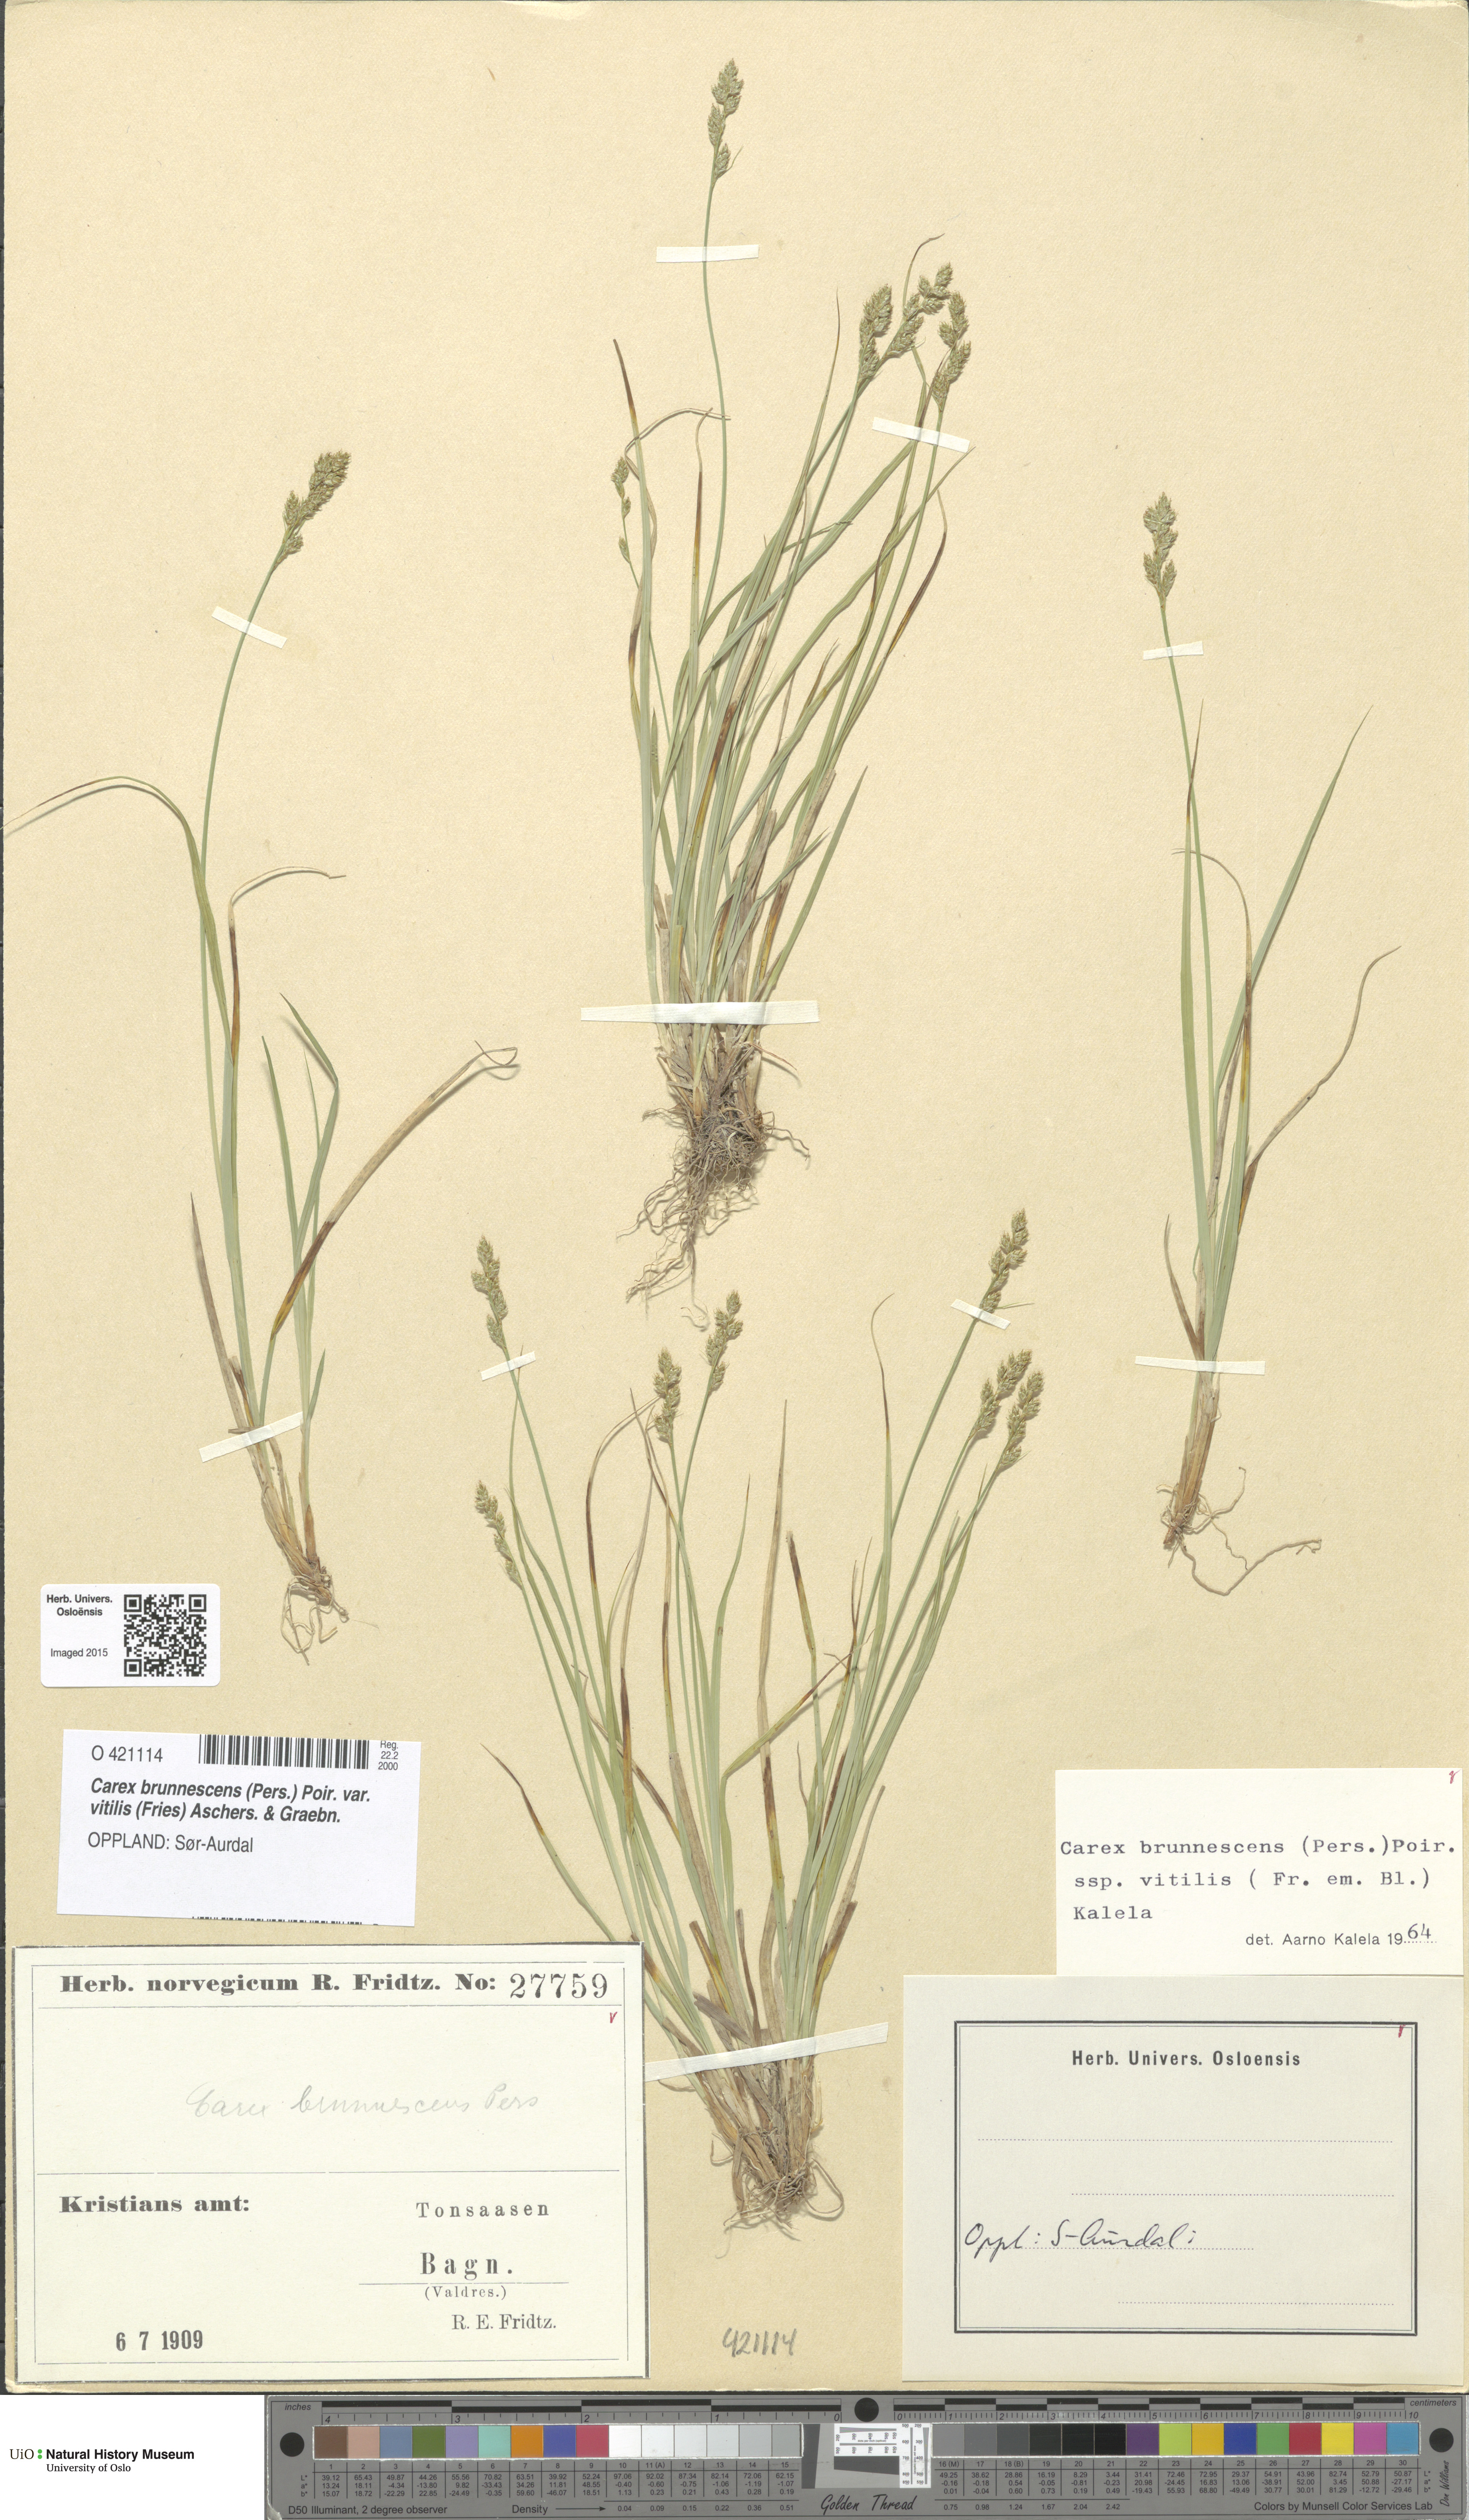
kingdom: Plantae
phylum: Tracheophyta
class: Liliopsida
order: Poales
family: Cyperaceae
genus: Carex
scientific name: Carex brunnescens
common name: Brown sedge
